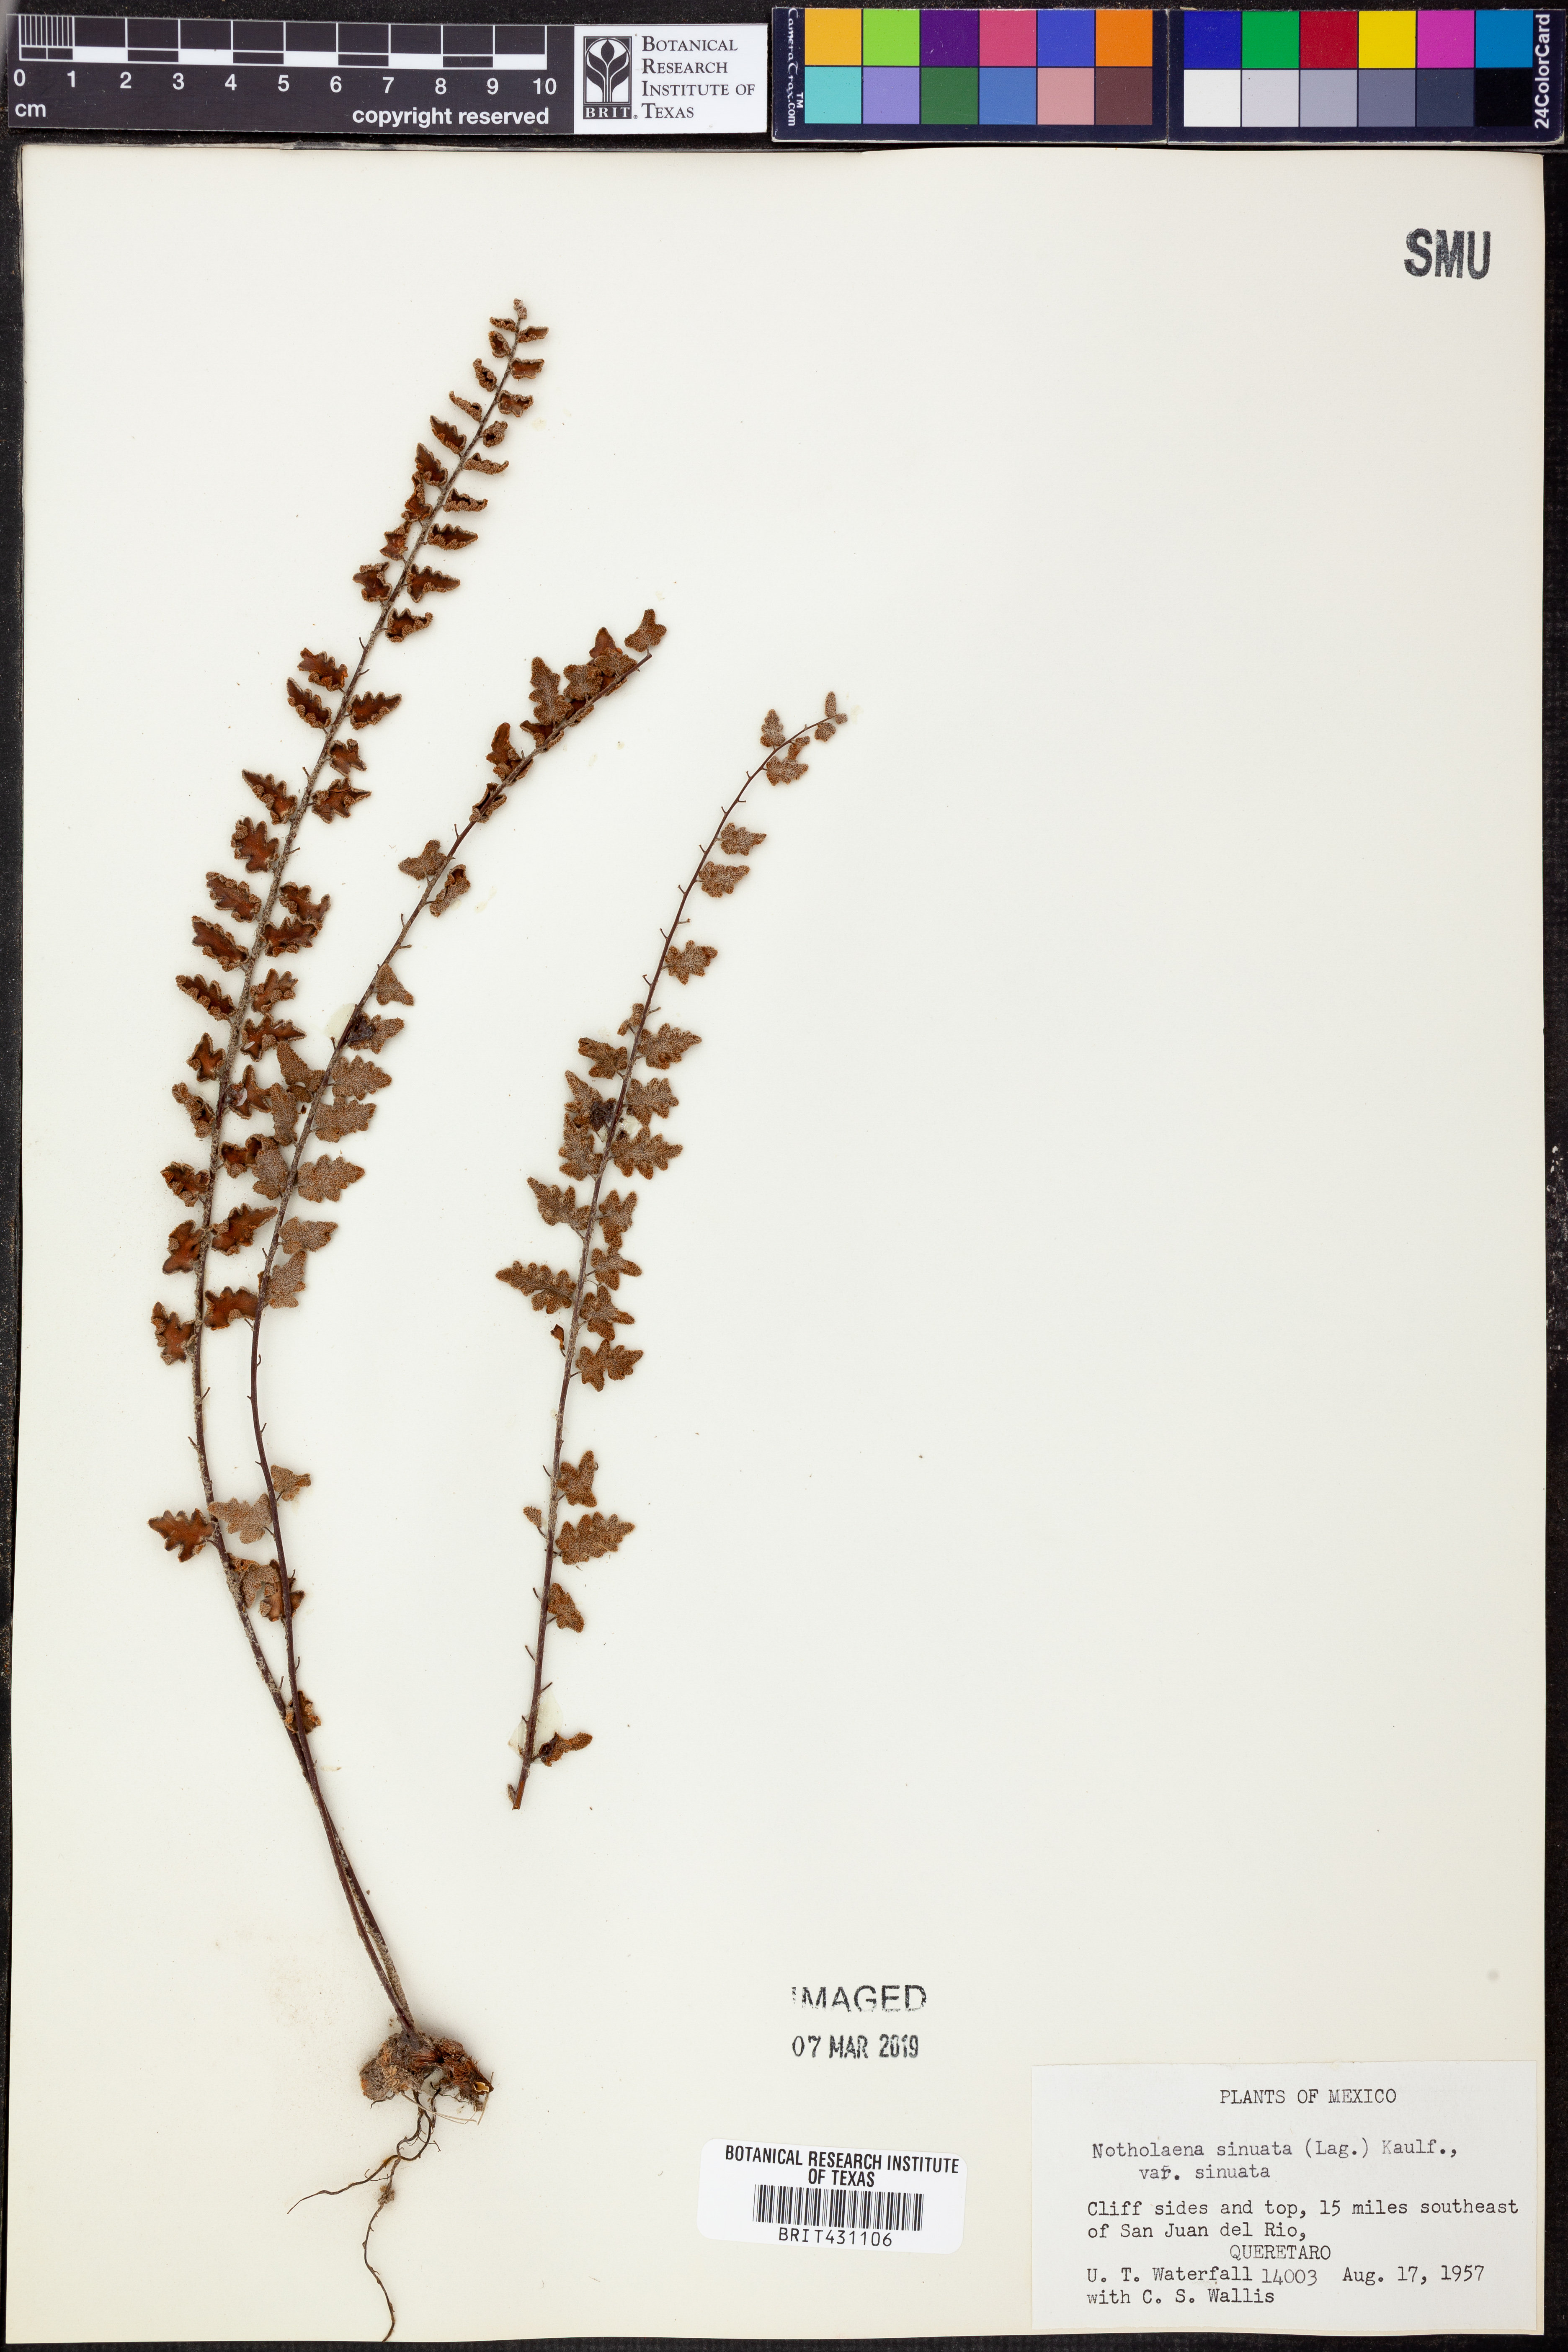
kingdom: Plantae
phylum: Tracheophyta
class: Polypodiopsida
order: Polypodiales
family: Pteridaceae
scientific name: Pteridaceae
